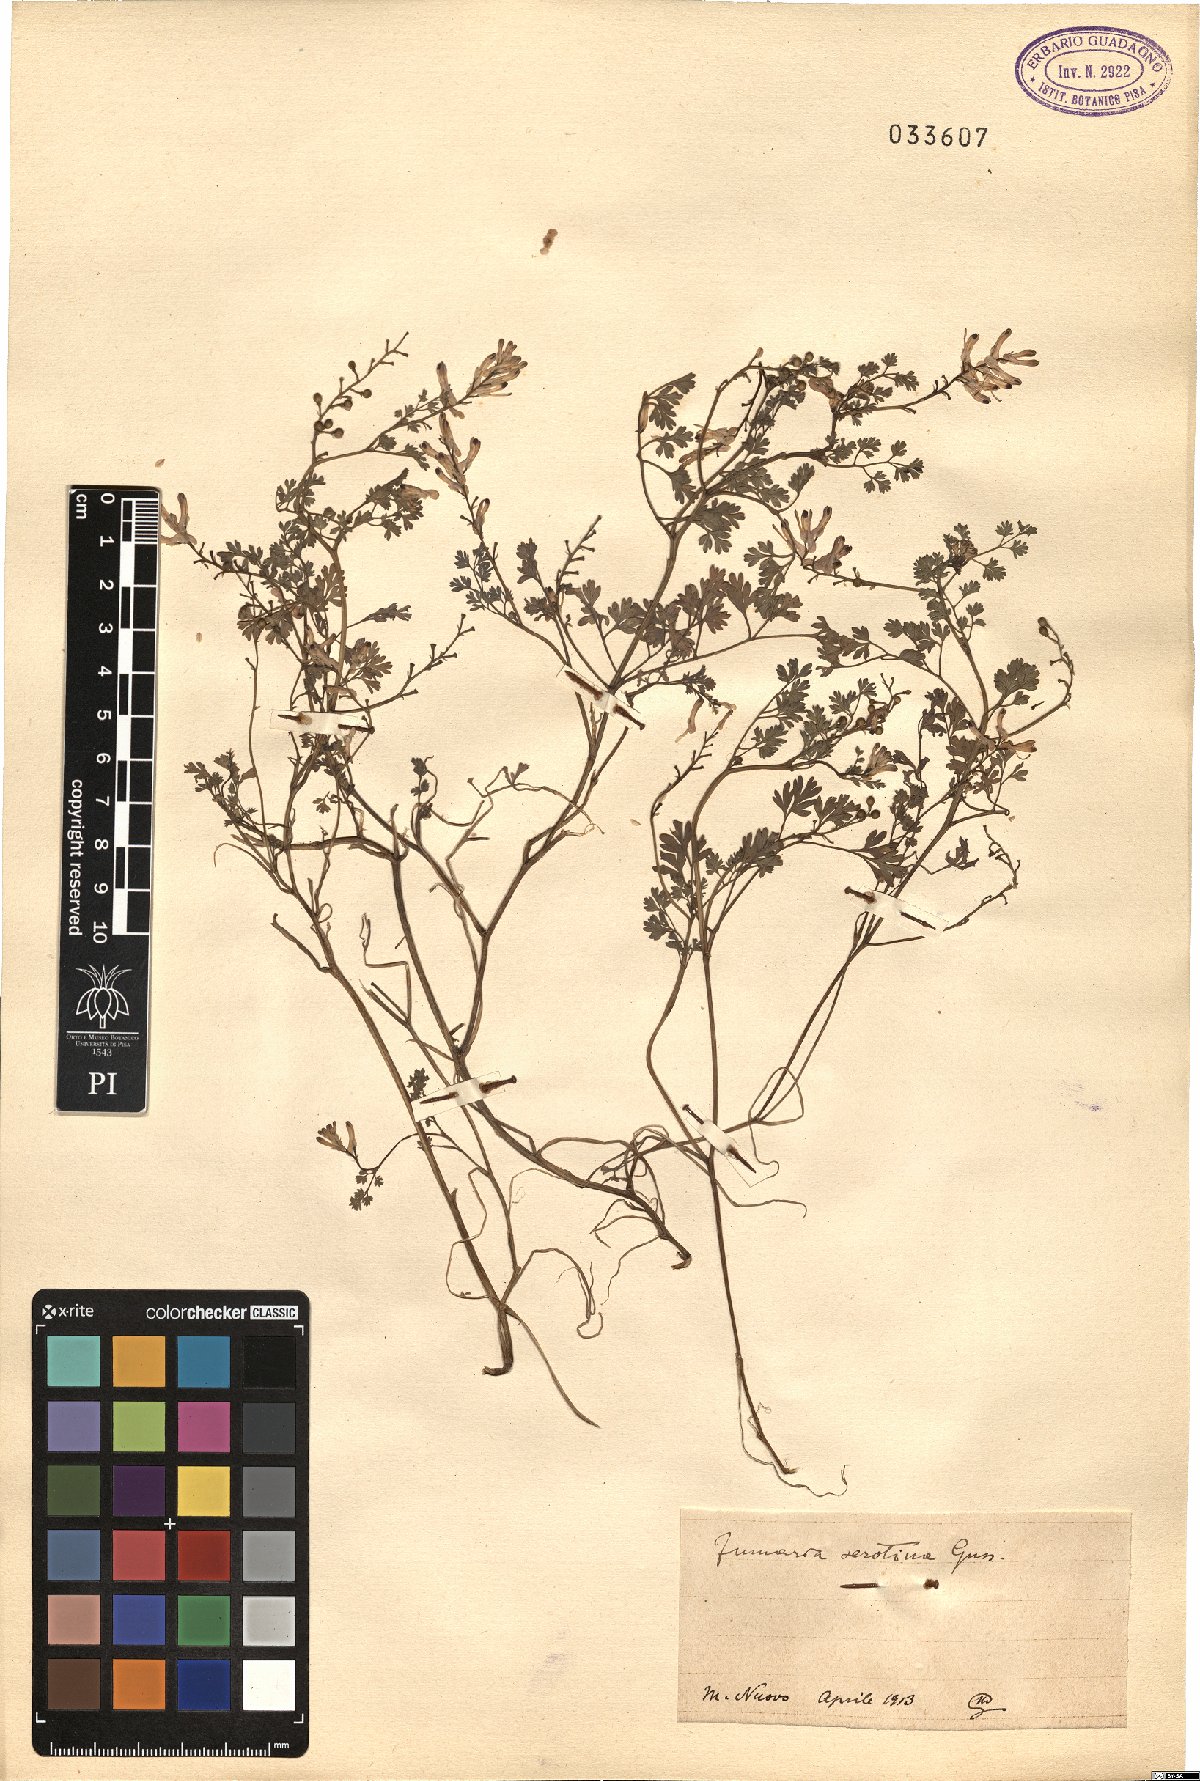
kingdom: Plantae
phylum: Tracheophyta
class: Magnoliopsida
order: Ranunculales
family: Papaveraceae
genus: Fumaria
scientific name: Fumaria bastardii
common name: Tall ramping-fumitory
